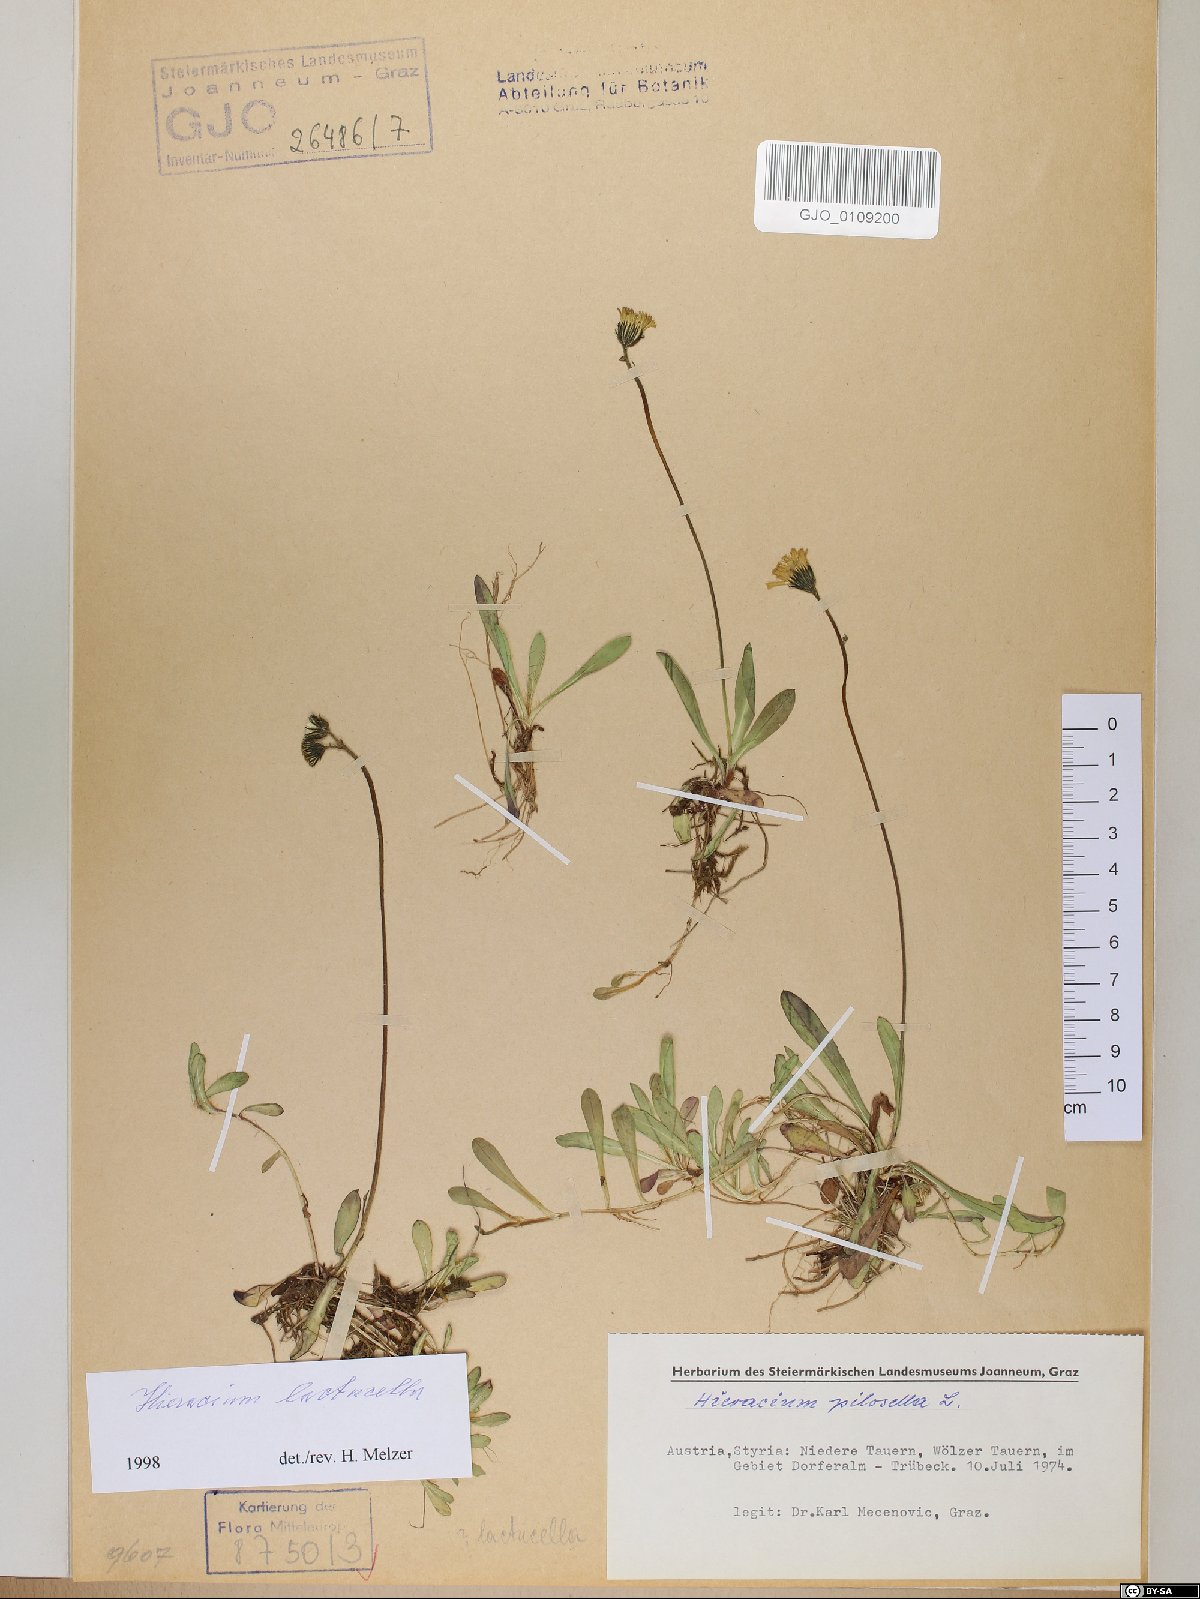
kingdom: Plantae
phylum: Tracheophyta
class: Magnoliopsida
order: Asterales
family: Asteraceae
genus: Pilosella
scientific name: Pilosella lactucella
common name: Glaucous fox-and-cubs
